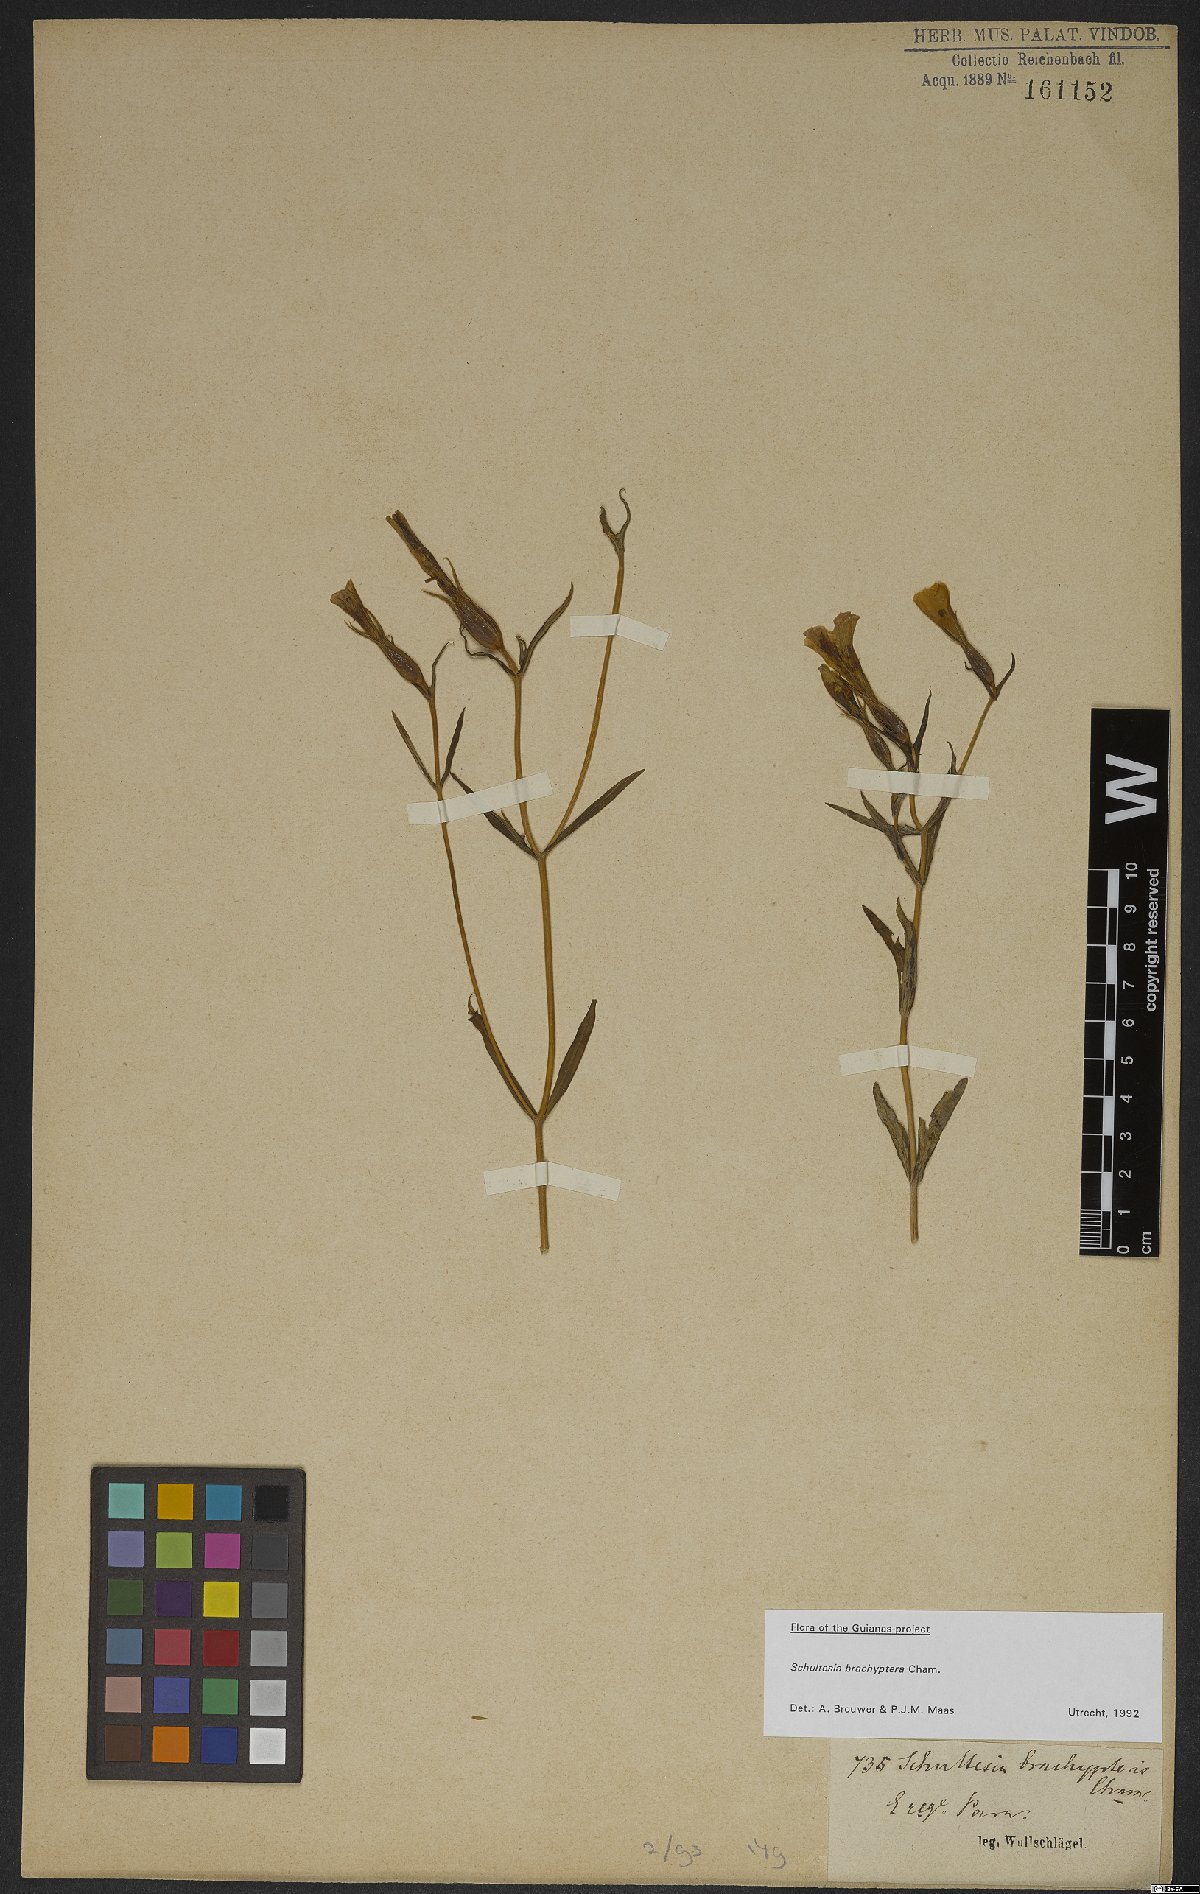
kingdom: Plantae
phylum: Tracheophyta
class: Magnoliopsida
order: Gentianales
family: Gentianaceae
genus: Schultesia
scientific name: Schultesia brachyptera
